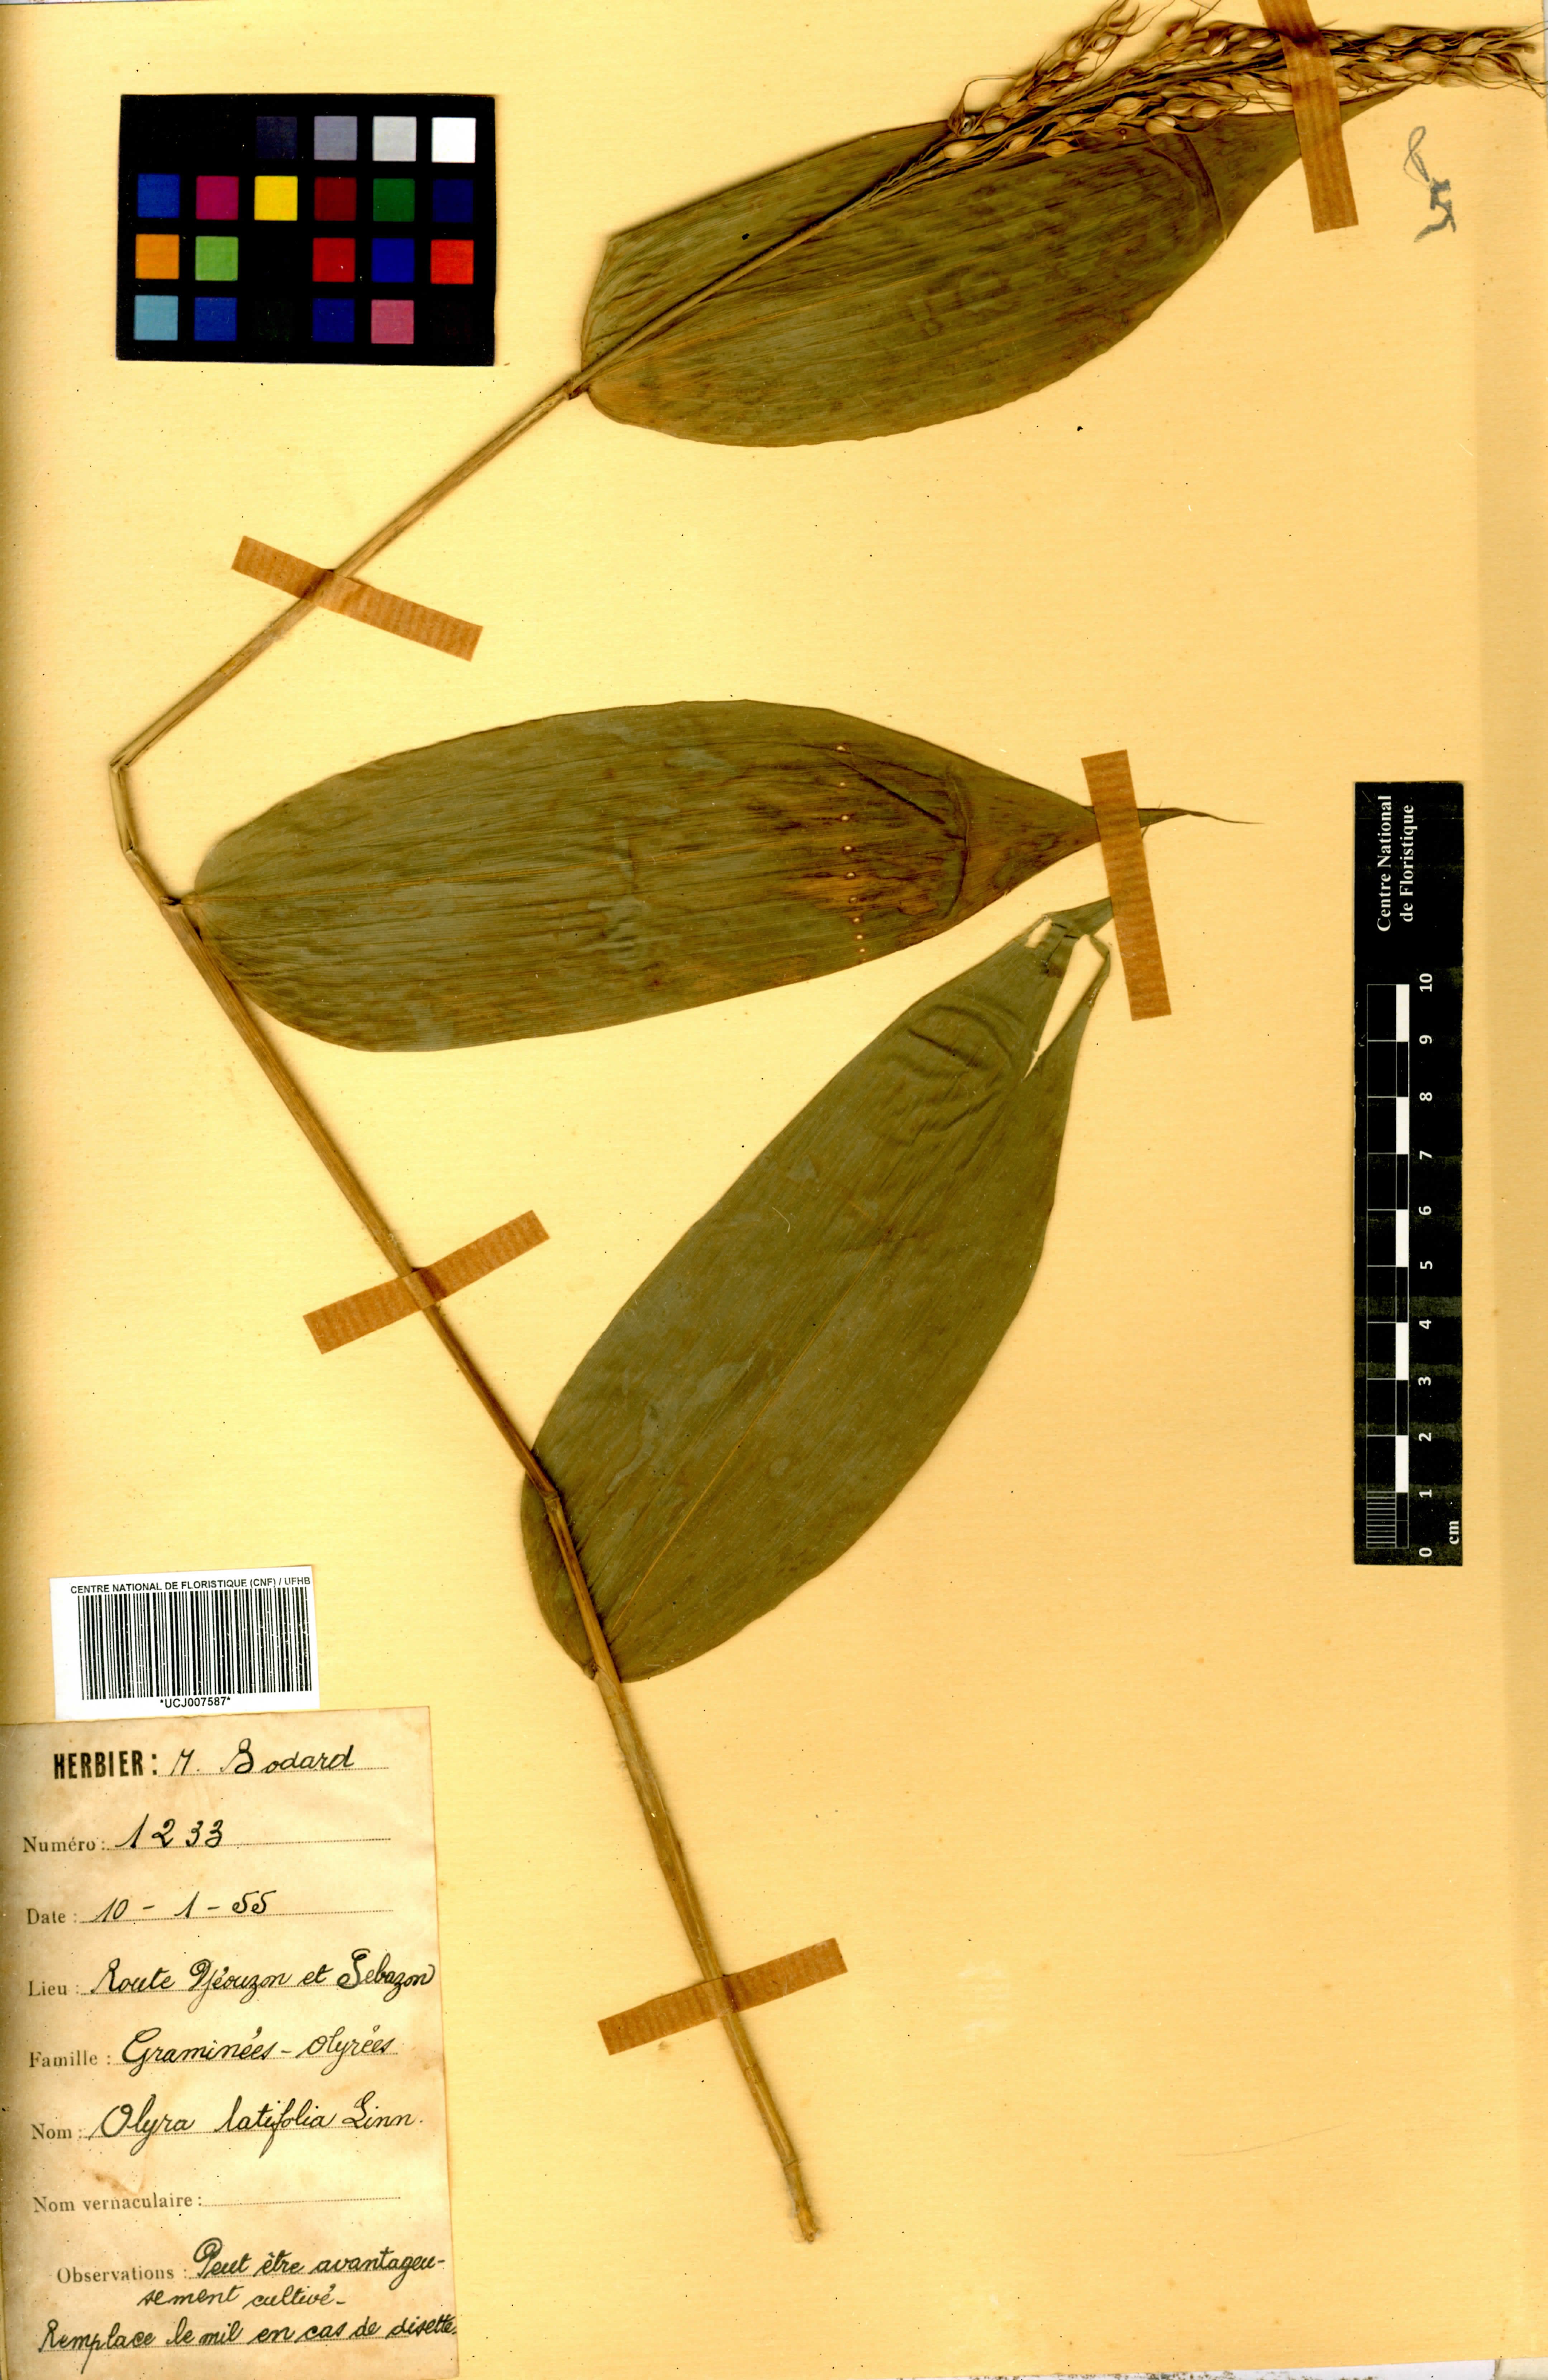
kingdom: Plantae
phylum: Tracheophyta
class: Liliopsida
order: Poales
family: Poaceae
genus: Olyra
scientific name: Olyra latifolia
